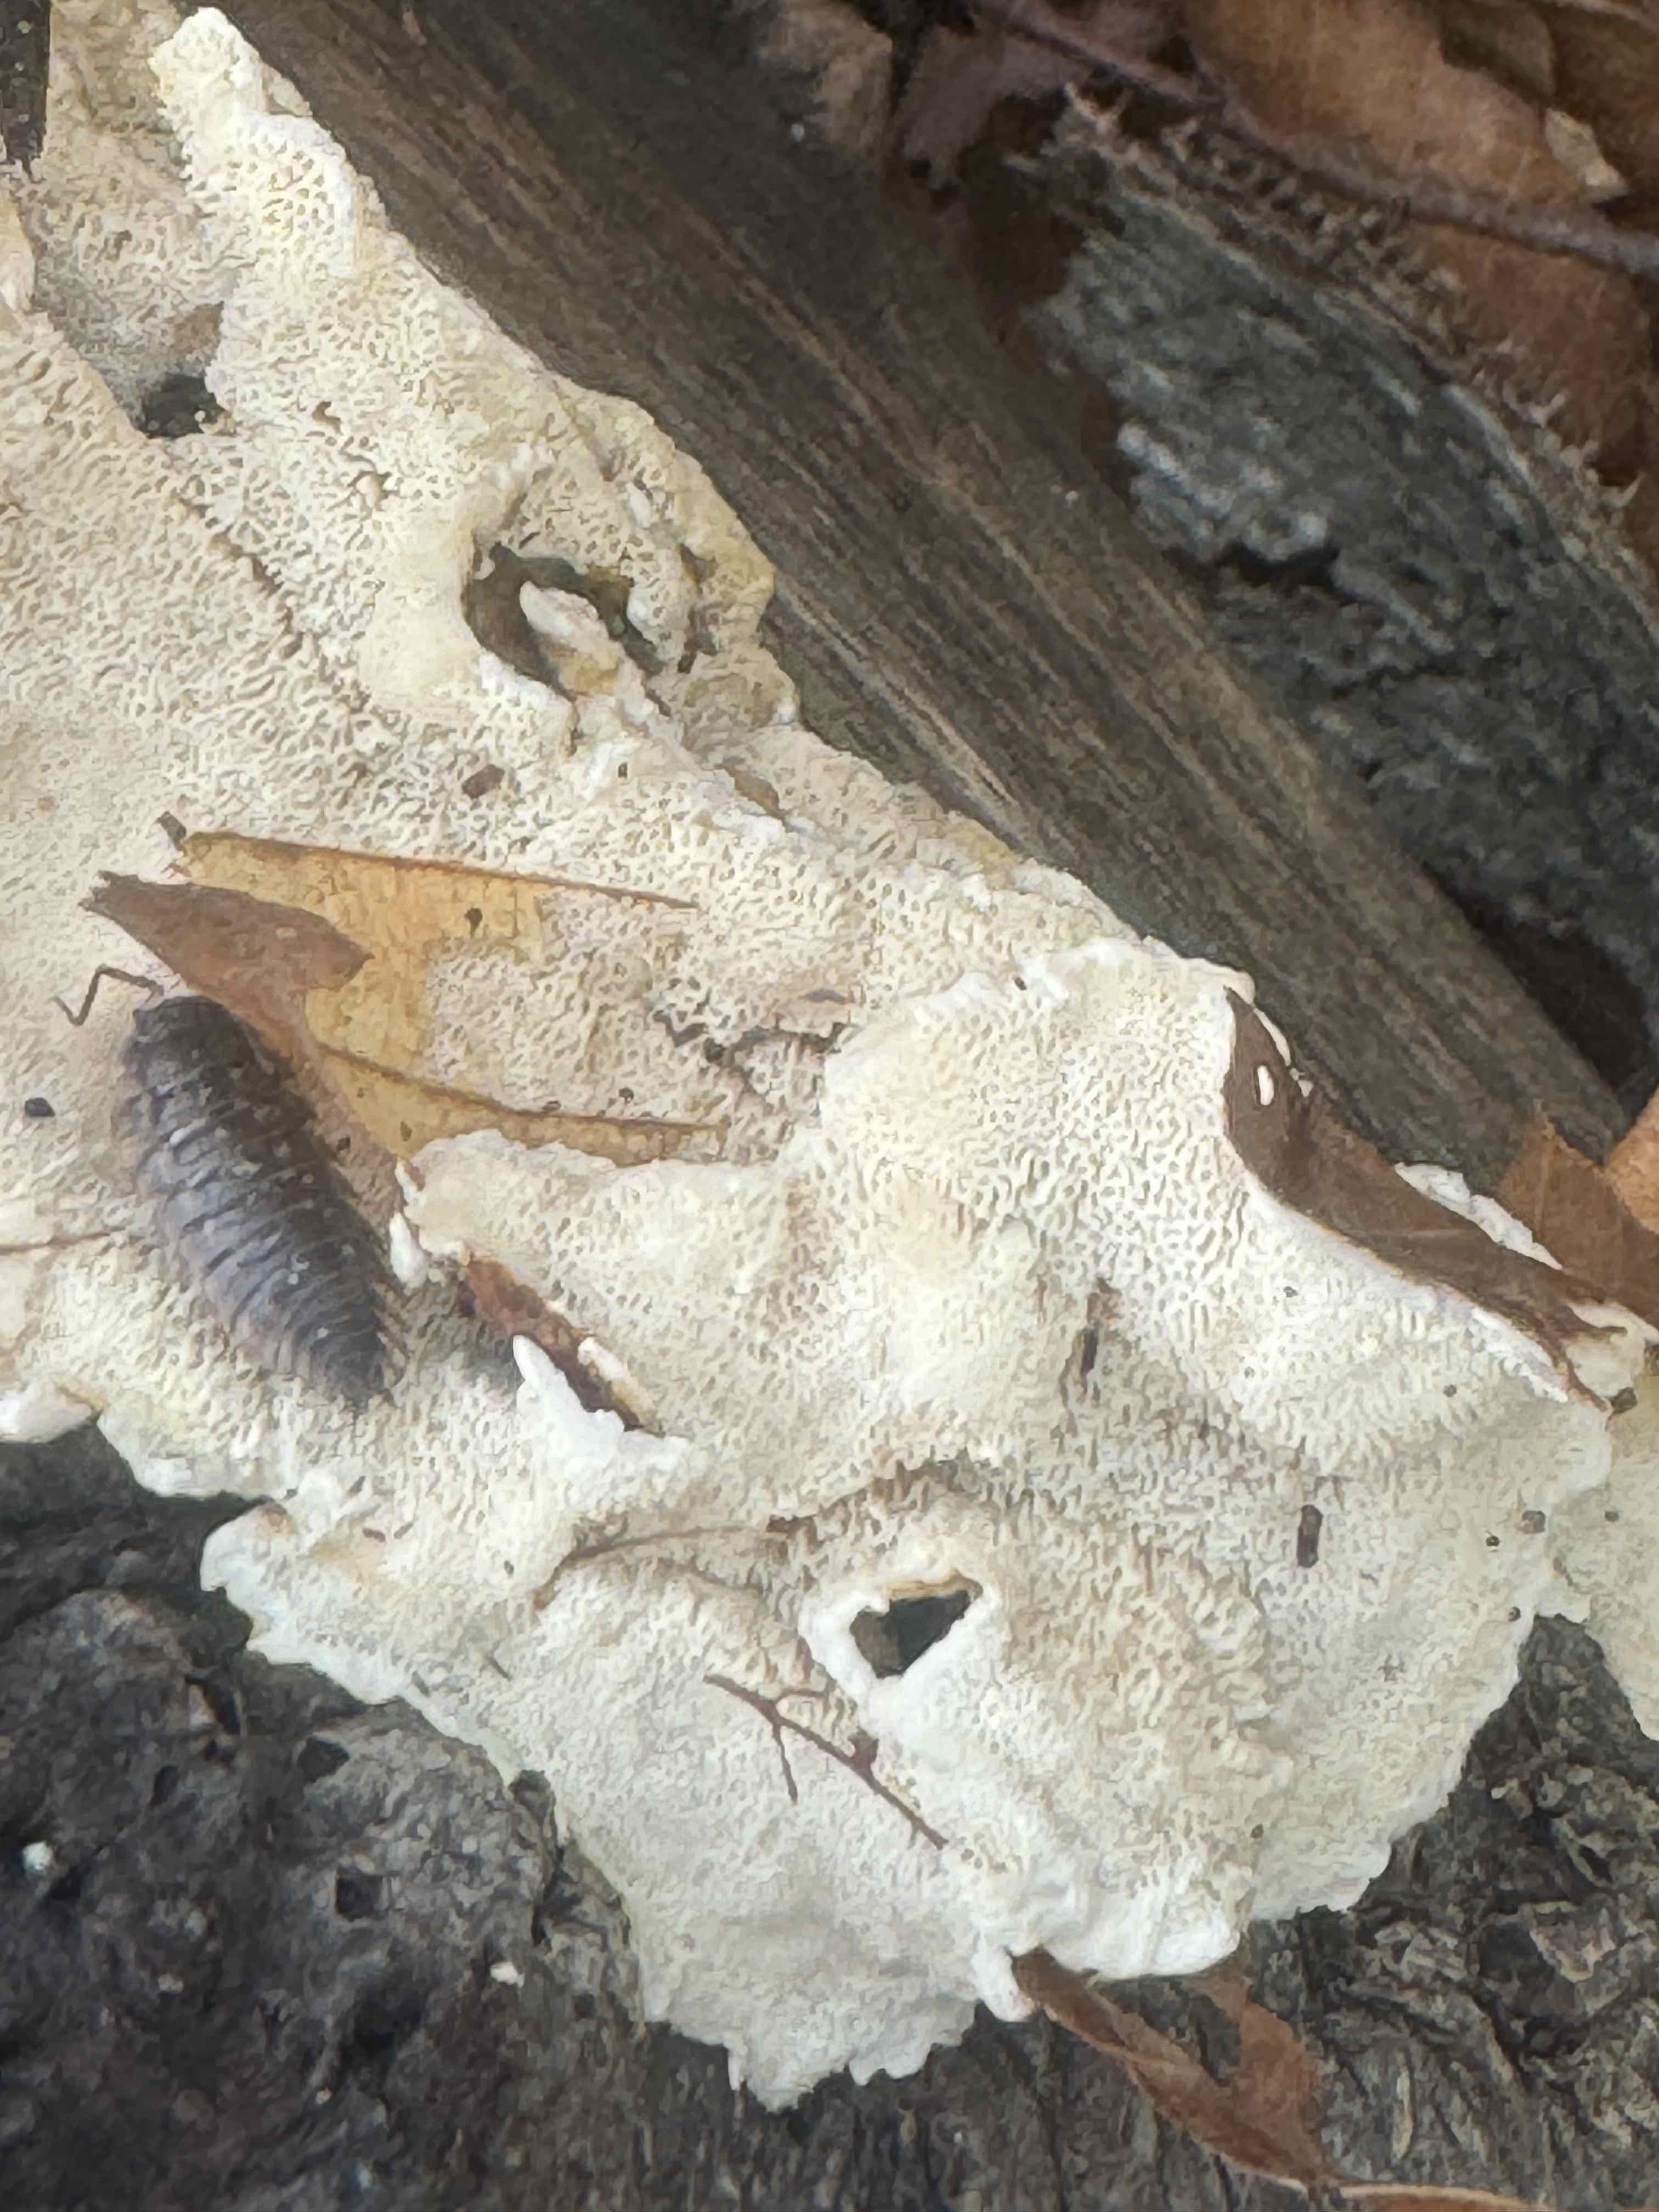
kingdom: Fungi
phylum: Basidiomycota
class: Agaricomycetes
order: Hymenochaetales
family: Schizoporaceae
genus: Xylodon
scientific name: Xylodon subtropicus
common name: labyrint-tandsvamp
